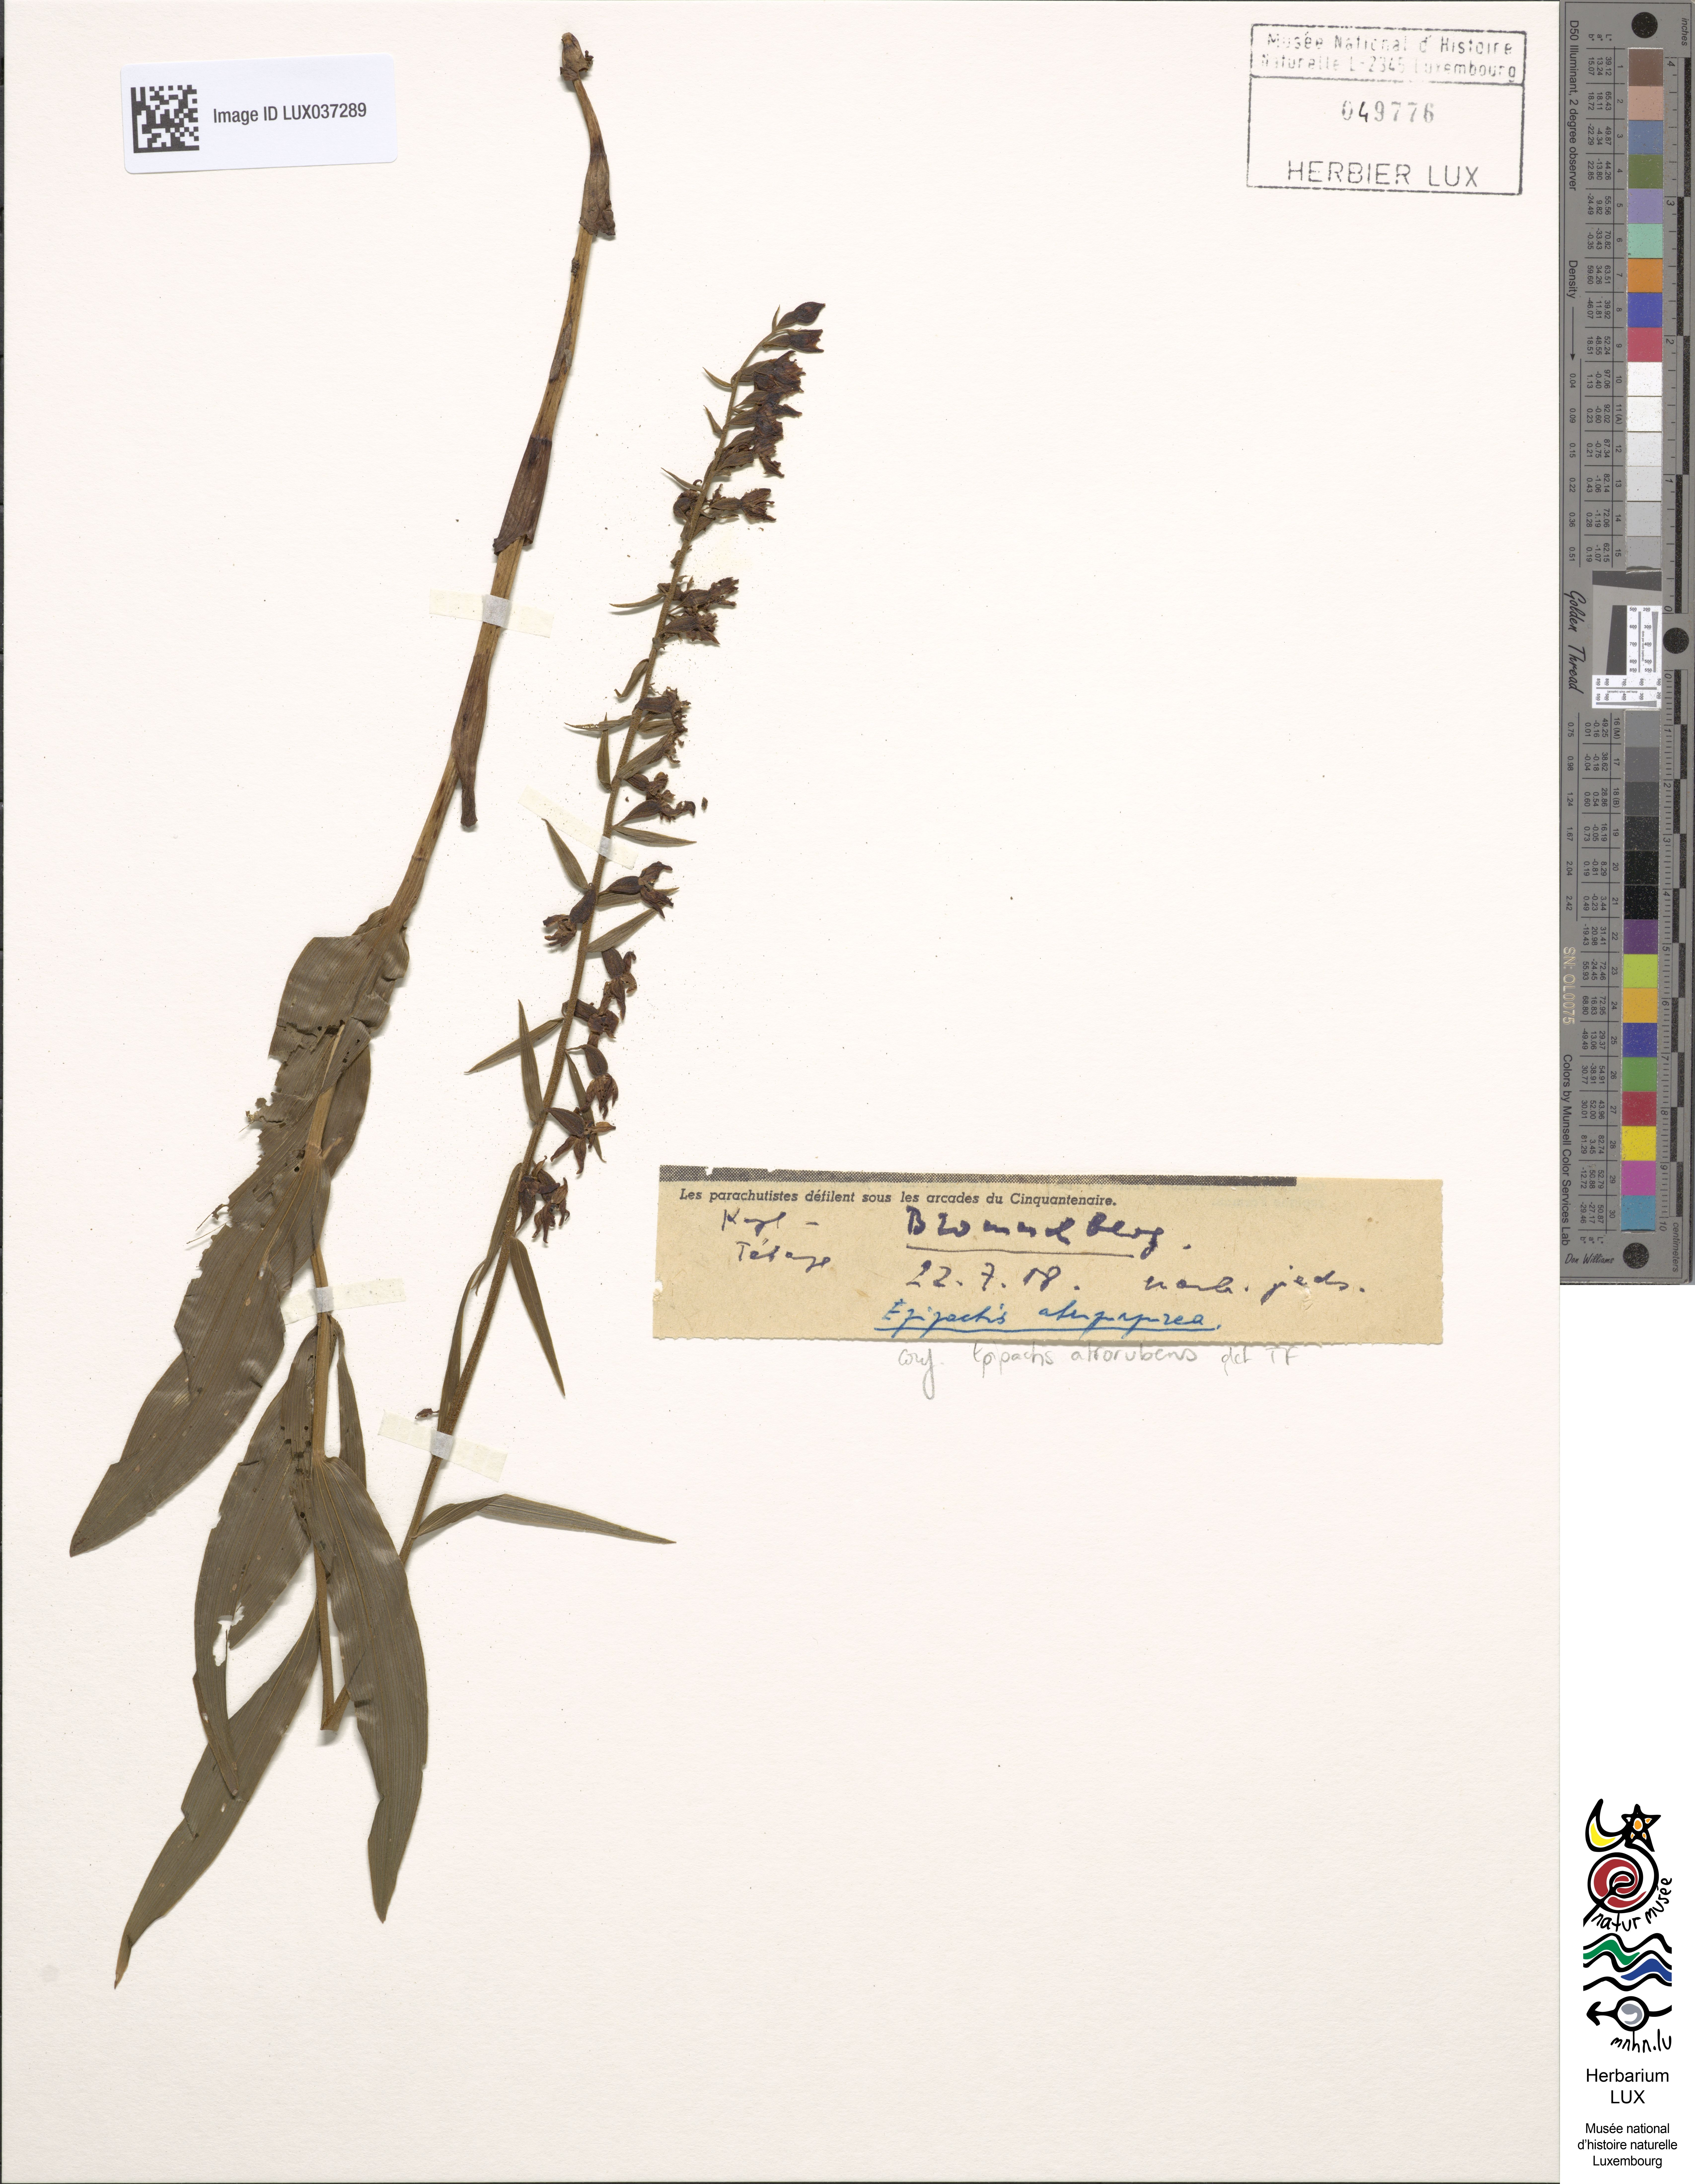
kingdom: Plantae
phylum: Tracheophyta
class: Liliopsida
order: Asparagales
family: Orchidaceae
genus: Epipactis
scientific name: Epipactis atrorubens
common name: Dark-red helleborine
